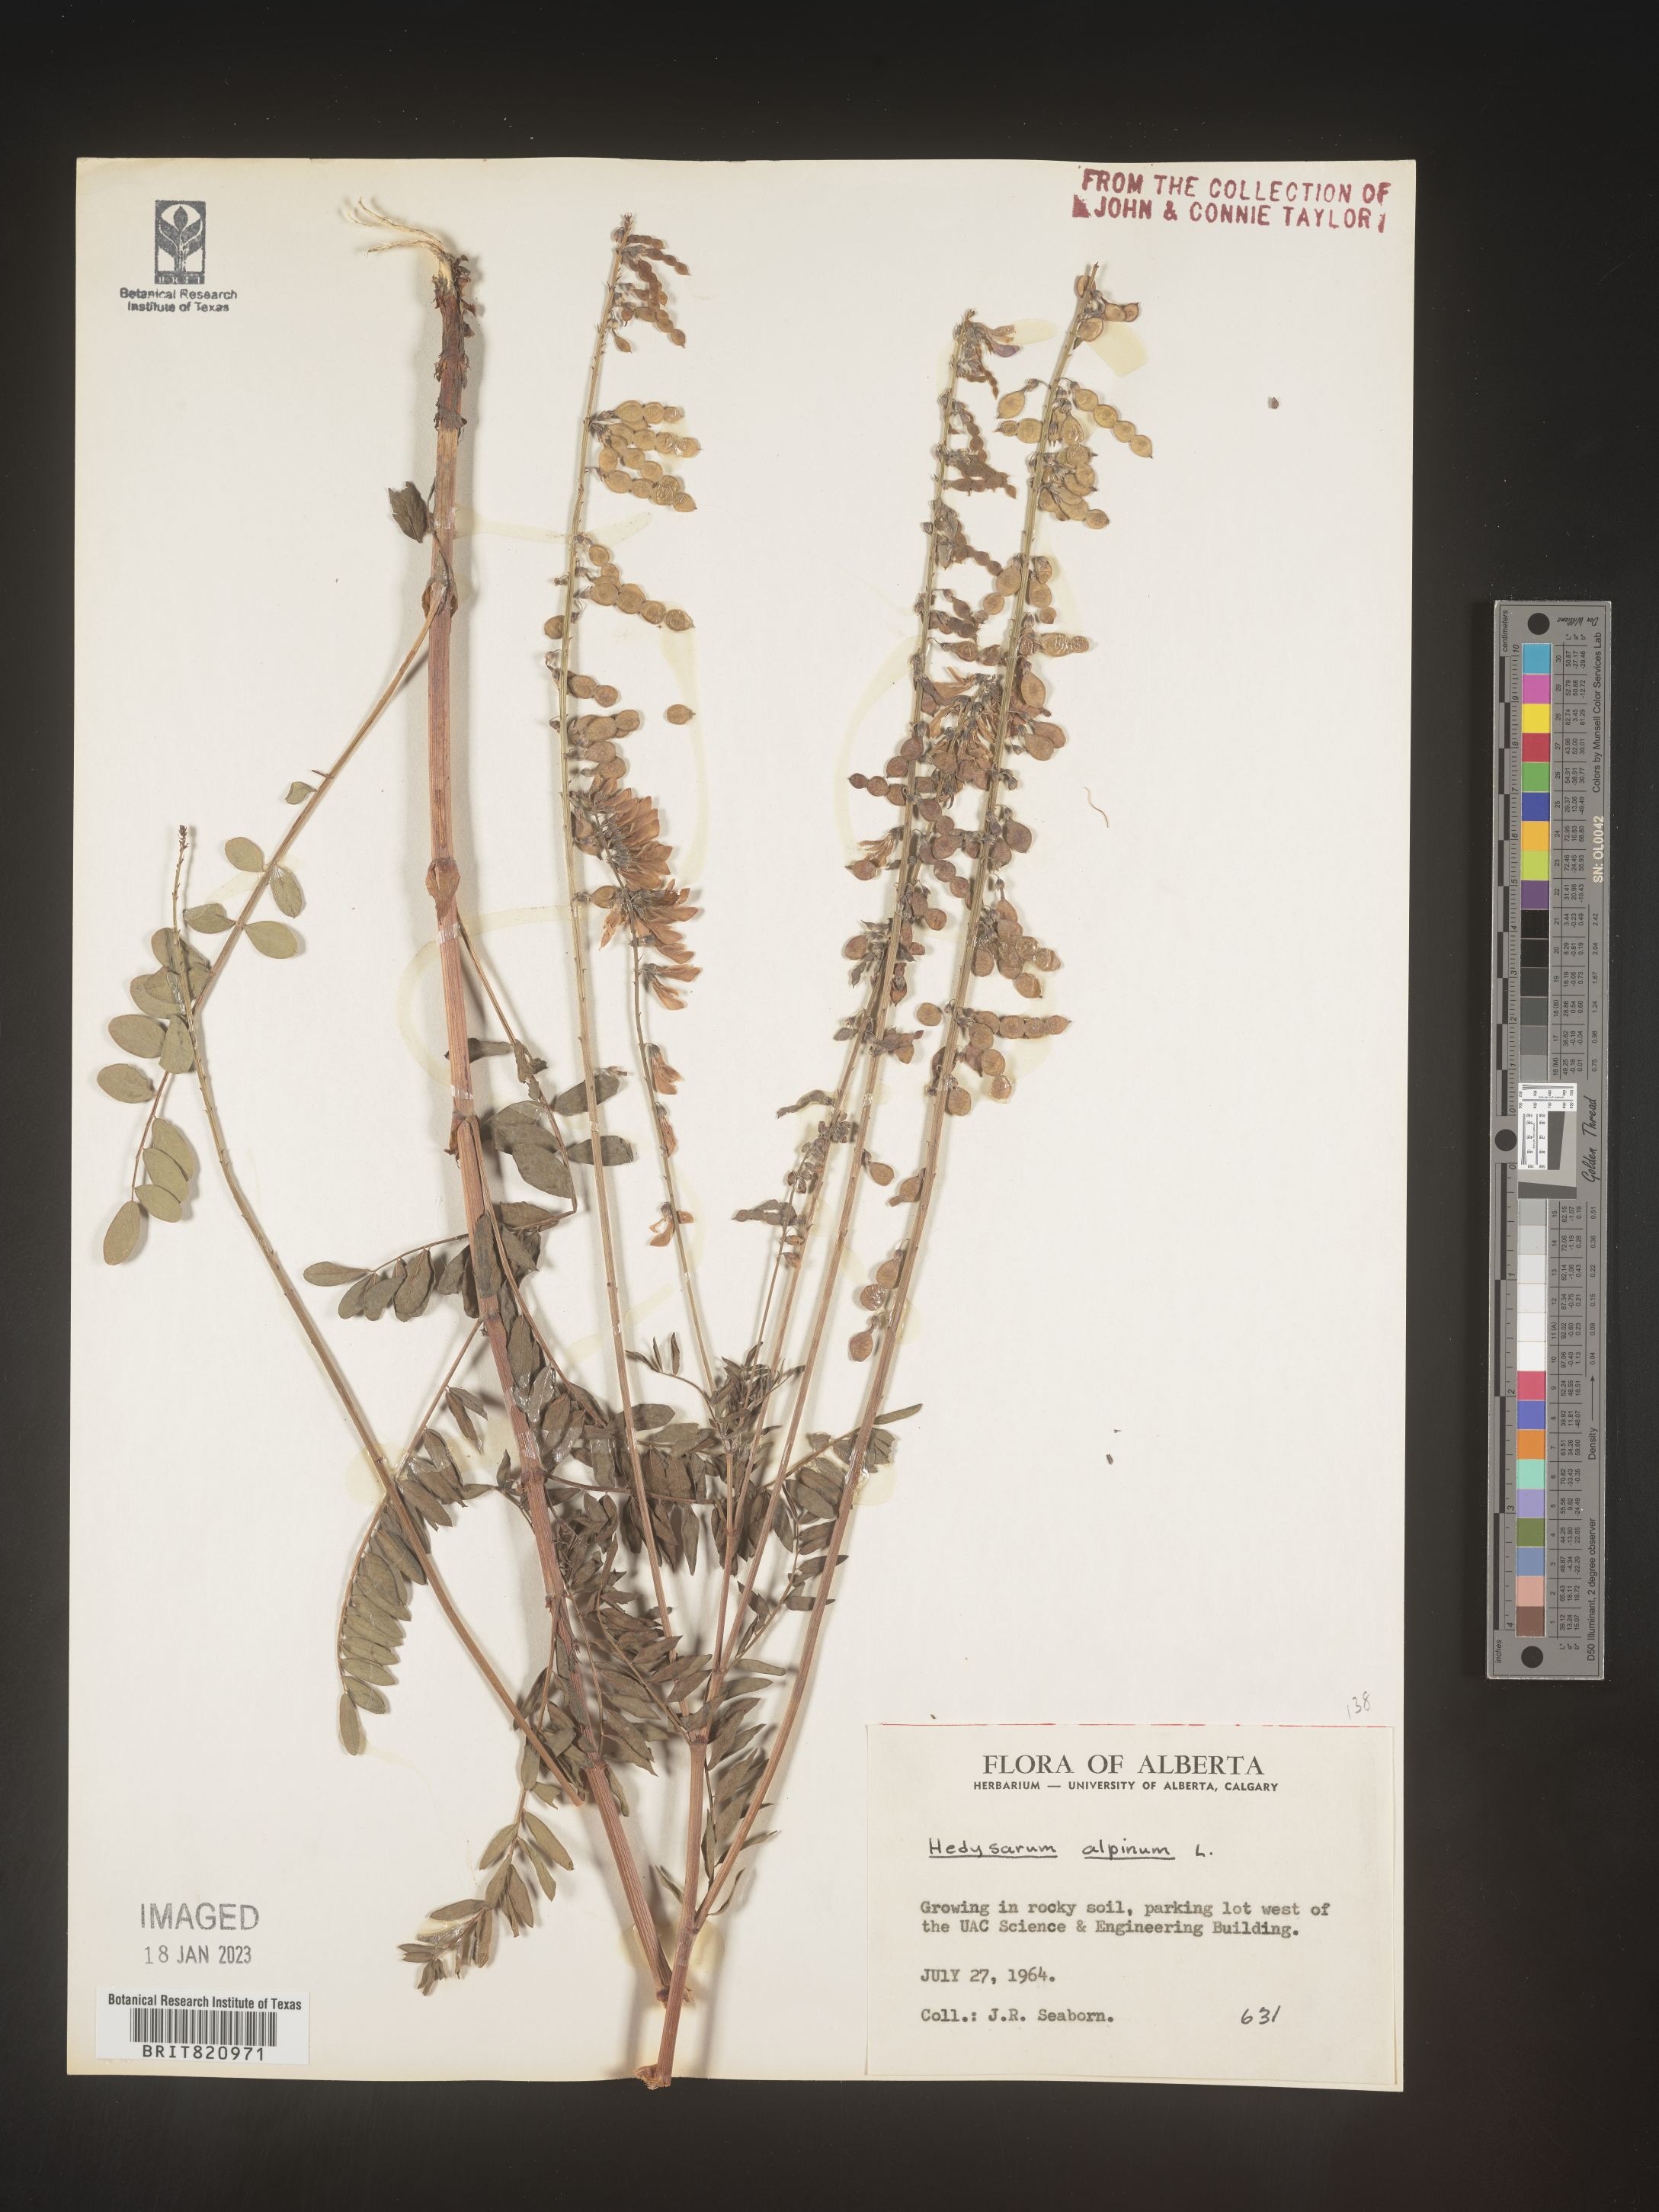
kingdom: Plantae
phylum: Tracheophyta
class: Magnoliopsida
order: Fabales
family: Fabaceae
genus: Hedysarum
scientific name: Hedysarum alpinum
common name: Alpine sweet-vetch
